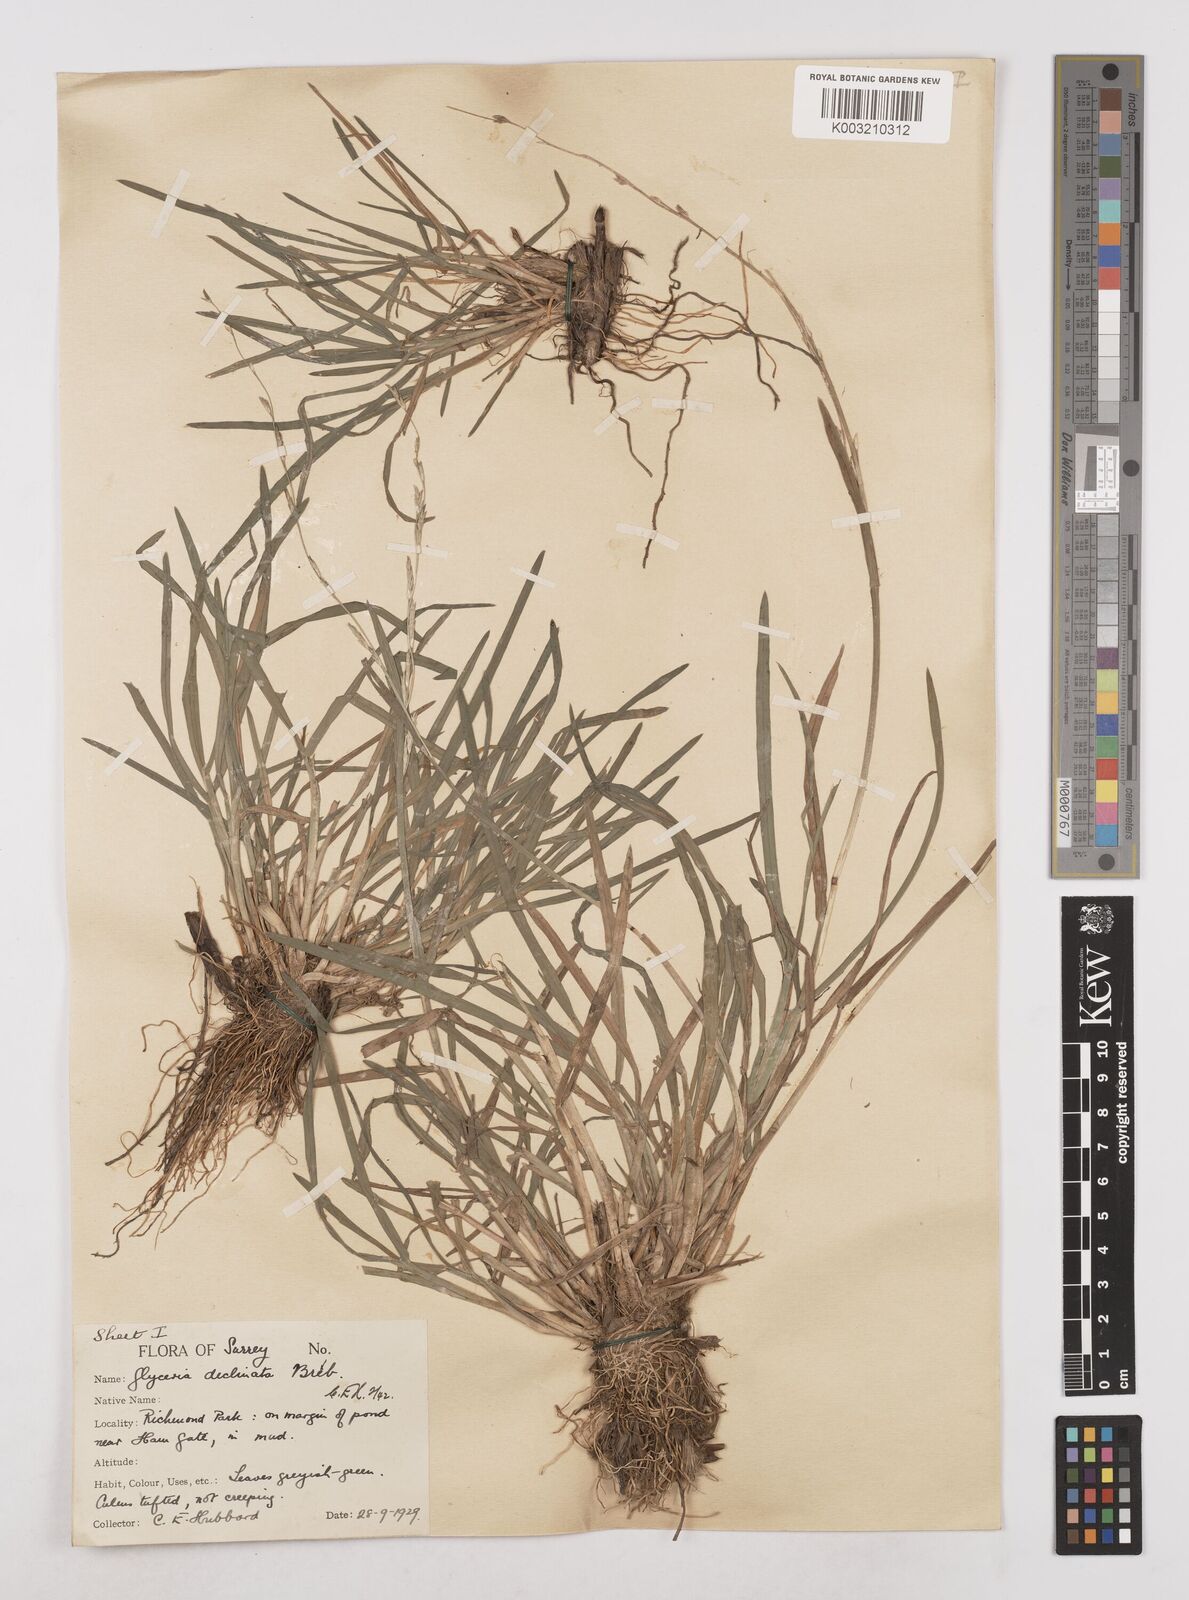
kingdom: Plantae
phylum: Tracheophyta
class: Liliopsida
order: Poales
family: Poaceae
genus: Glyceria
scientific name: Glyceria declinata
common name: Small sweet-grass
